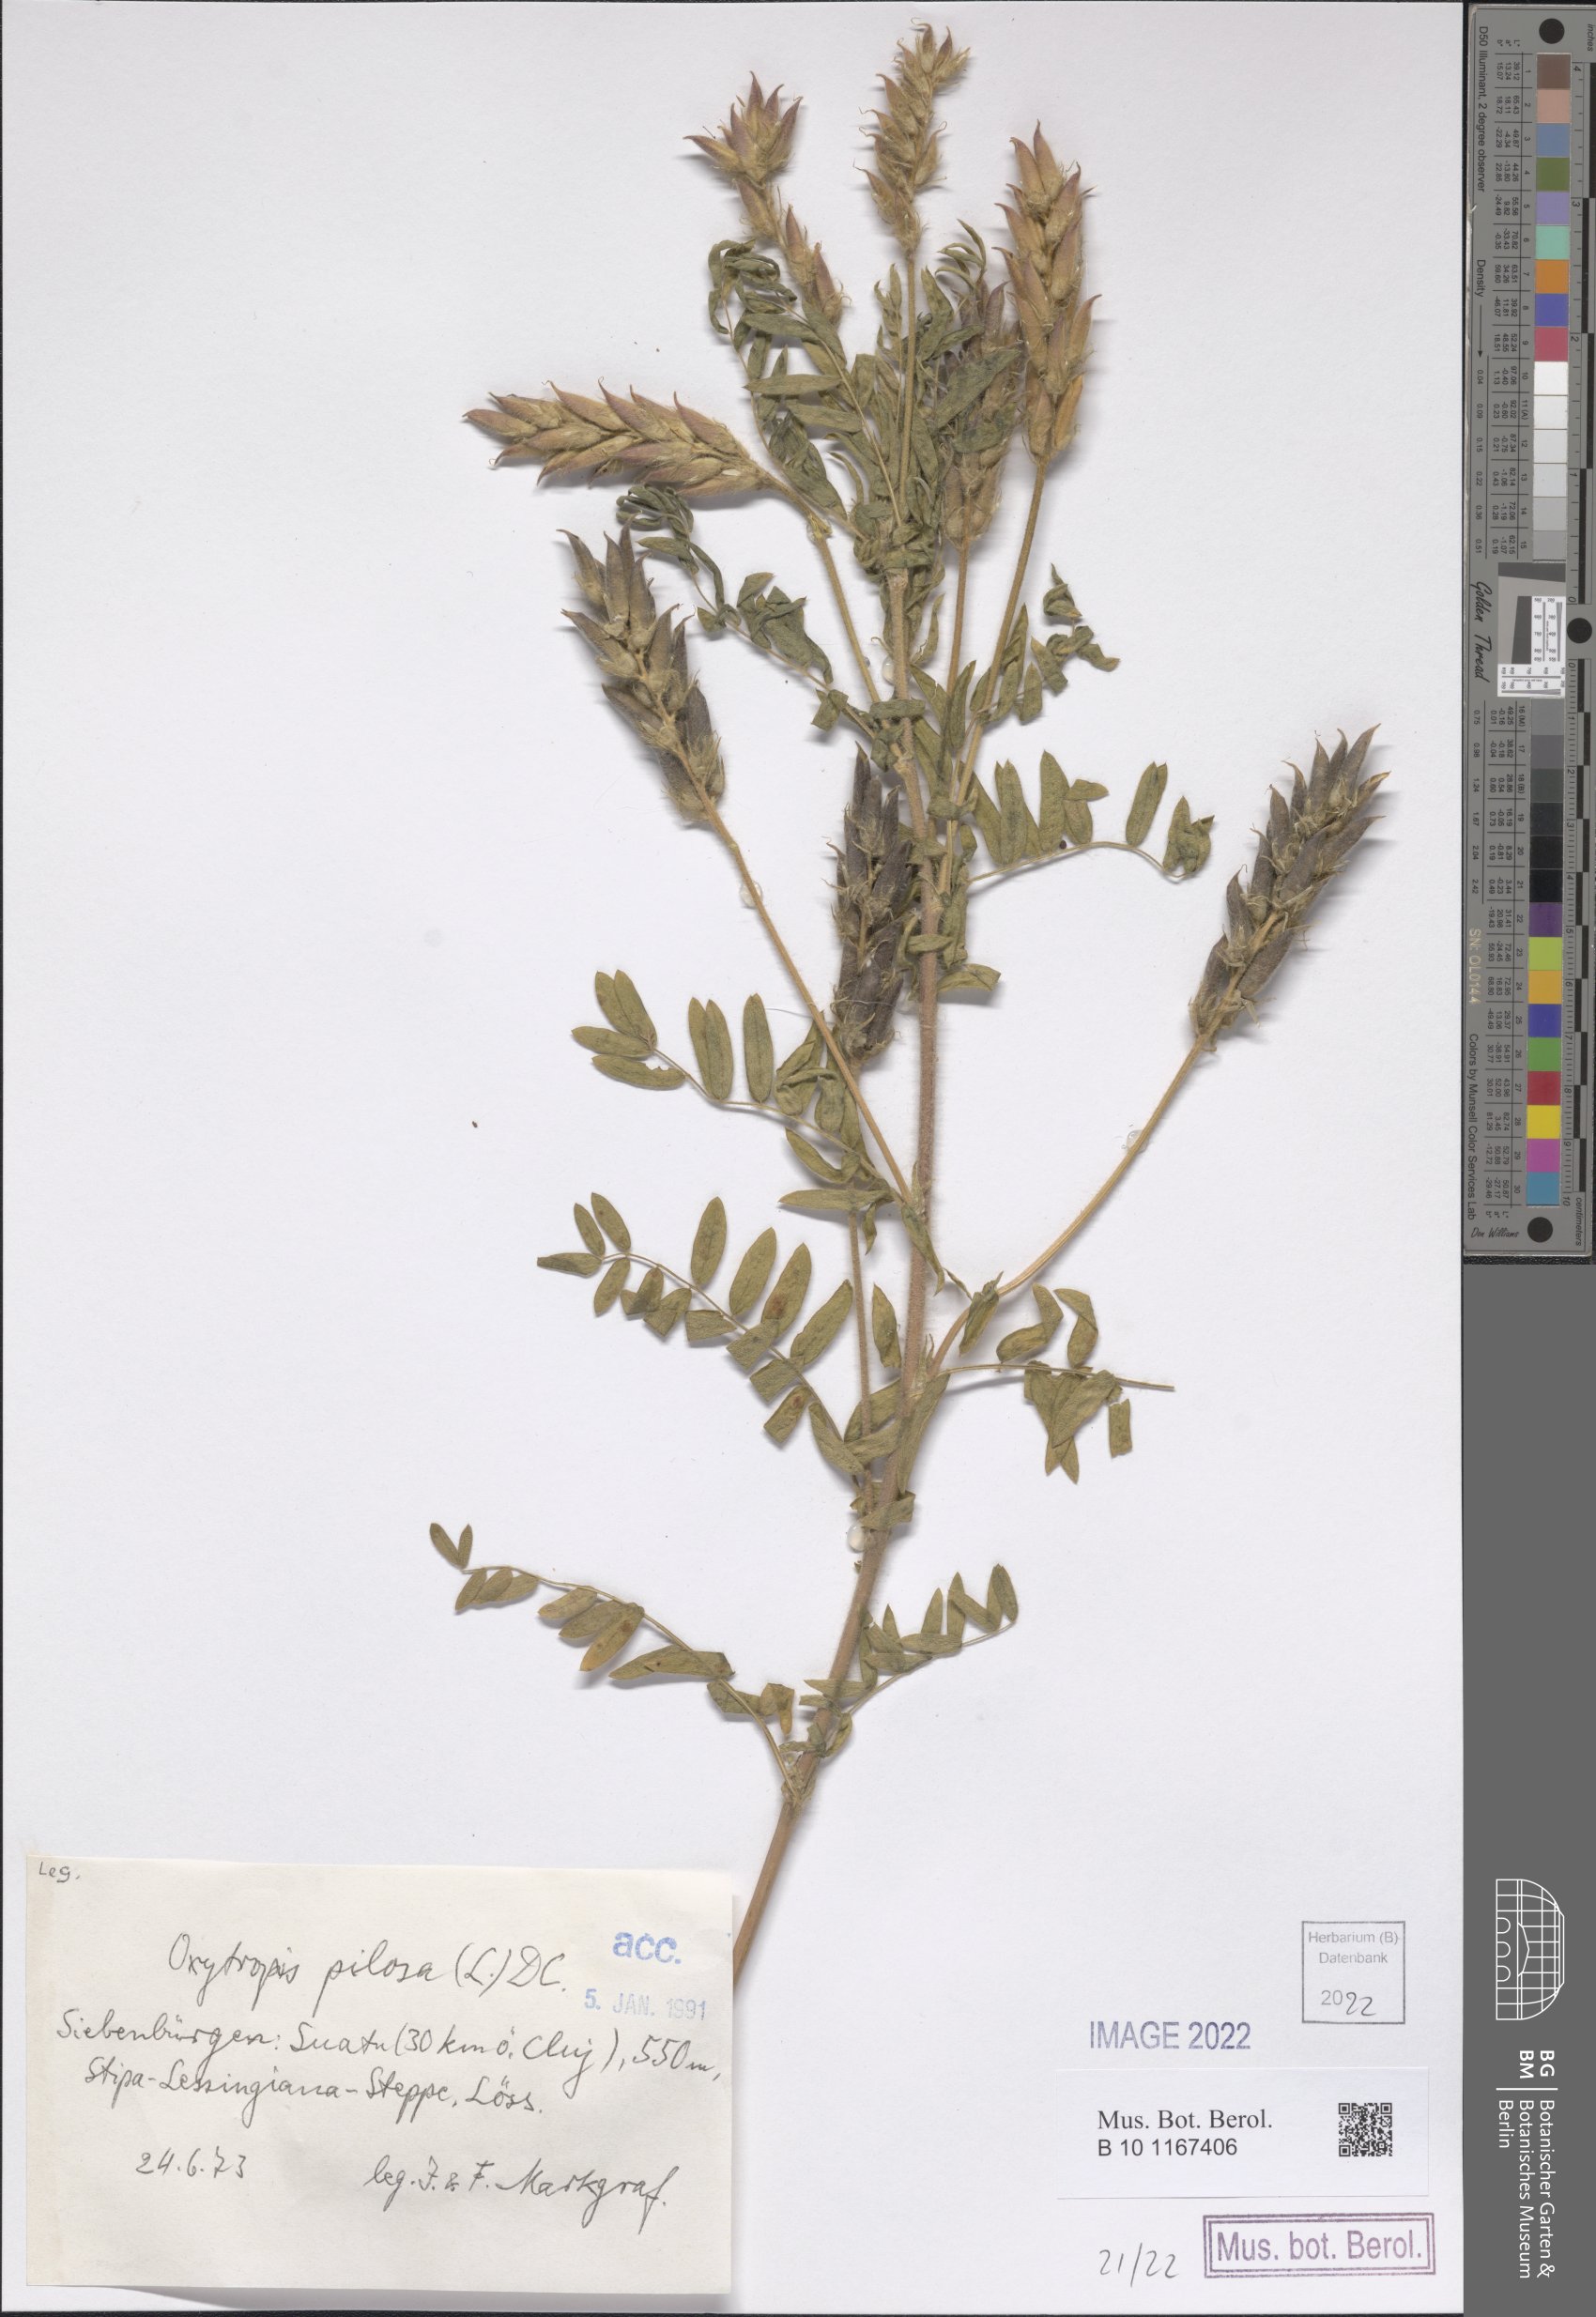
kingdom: Plantae
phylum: Tracheophyta
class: Magnoliopsida
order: Fabales
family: Fabaceae
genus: Oxytropis
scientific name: Oxytropis pilosa
